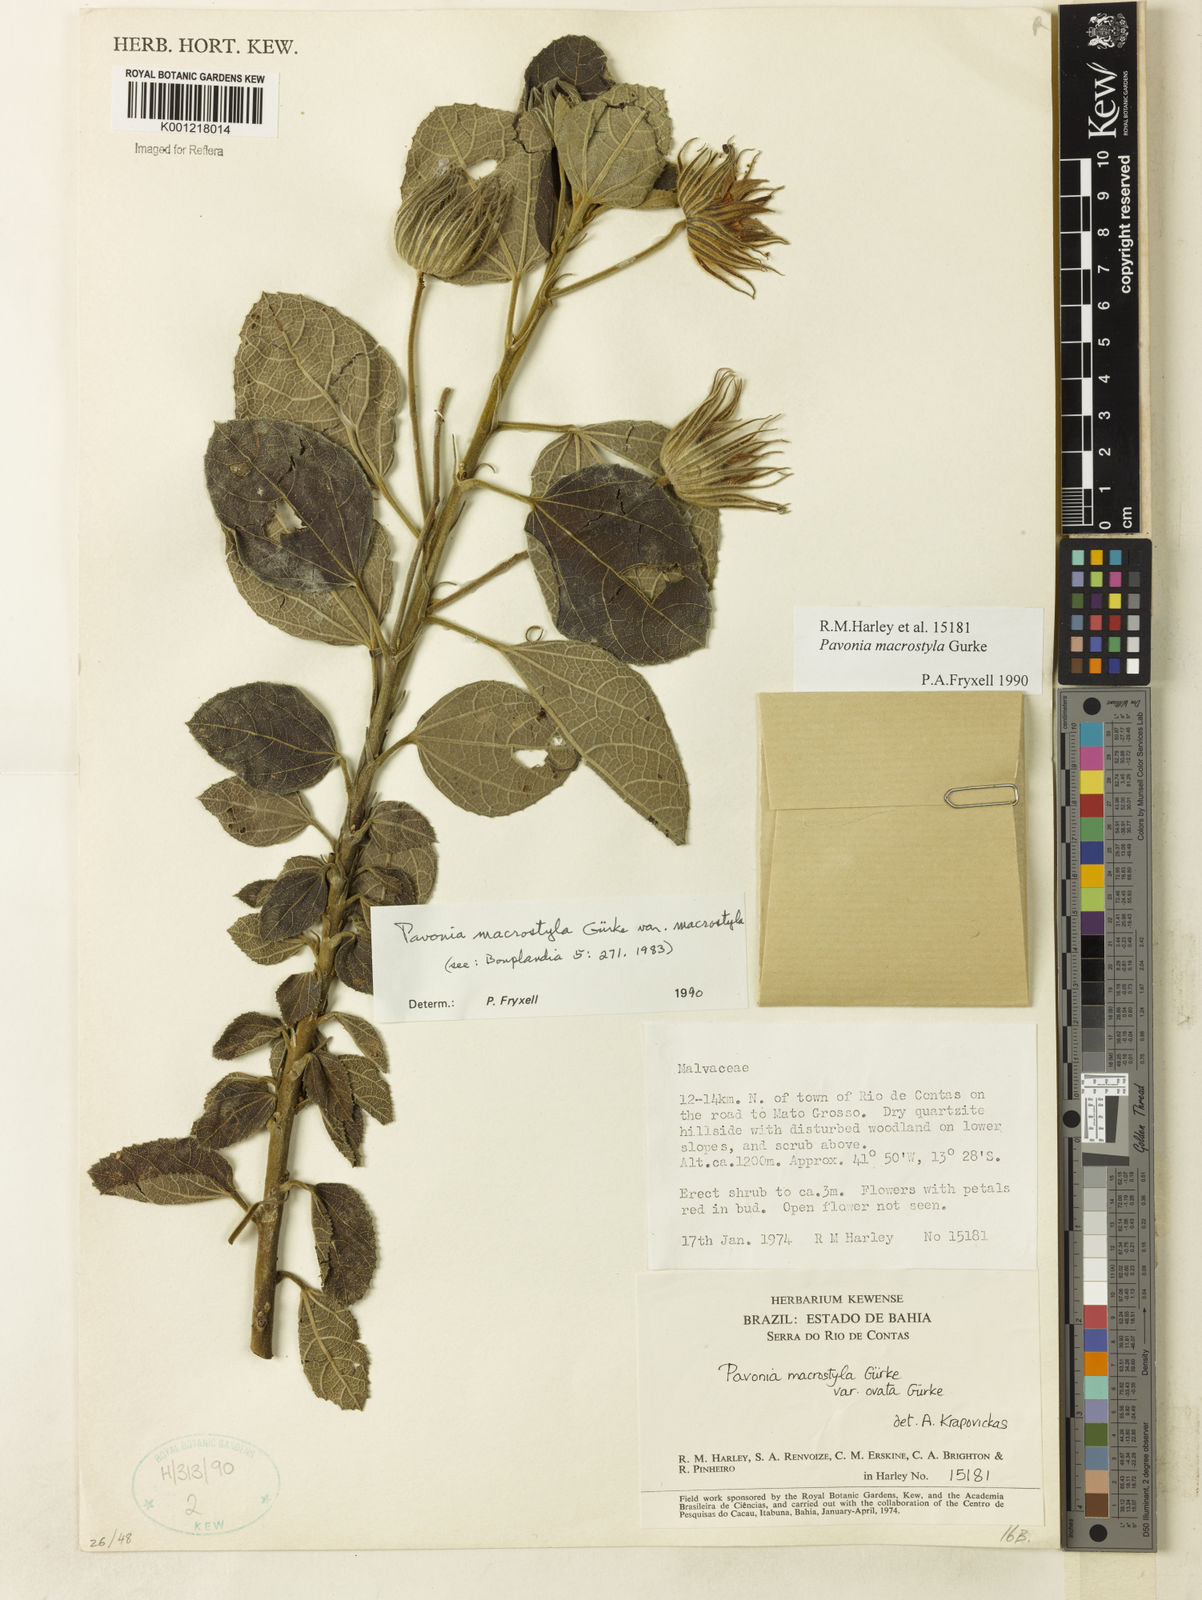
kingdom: Plantae
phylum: Tracheophyta
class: Magnoliopsida
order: Malvales
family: Malvaceae
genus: Pavonia
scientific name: Pavonia
